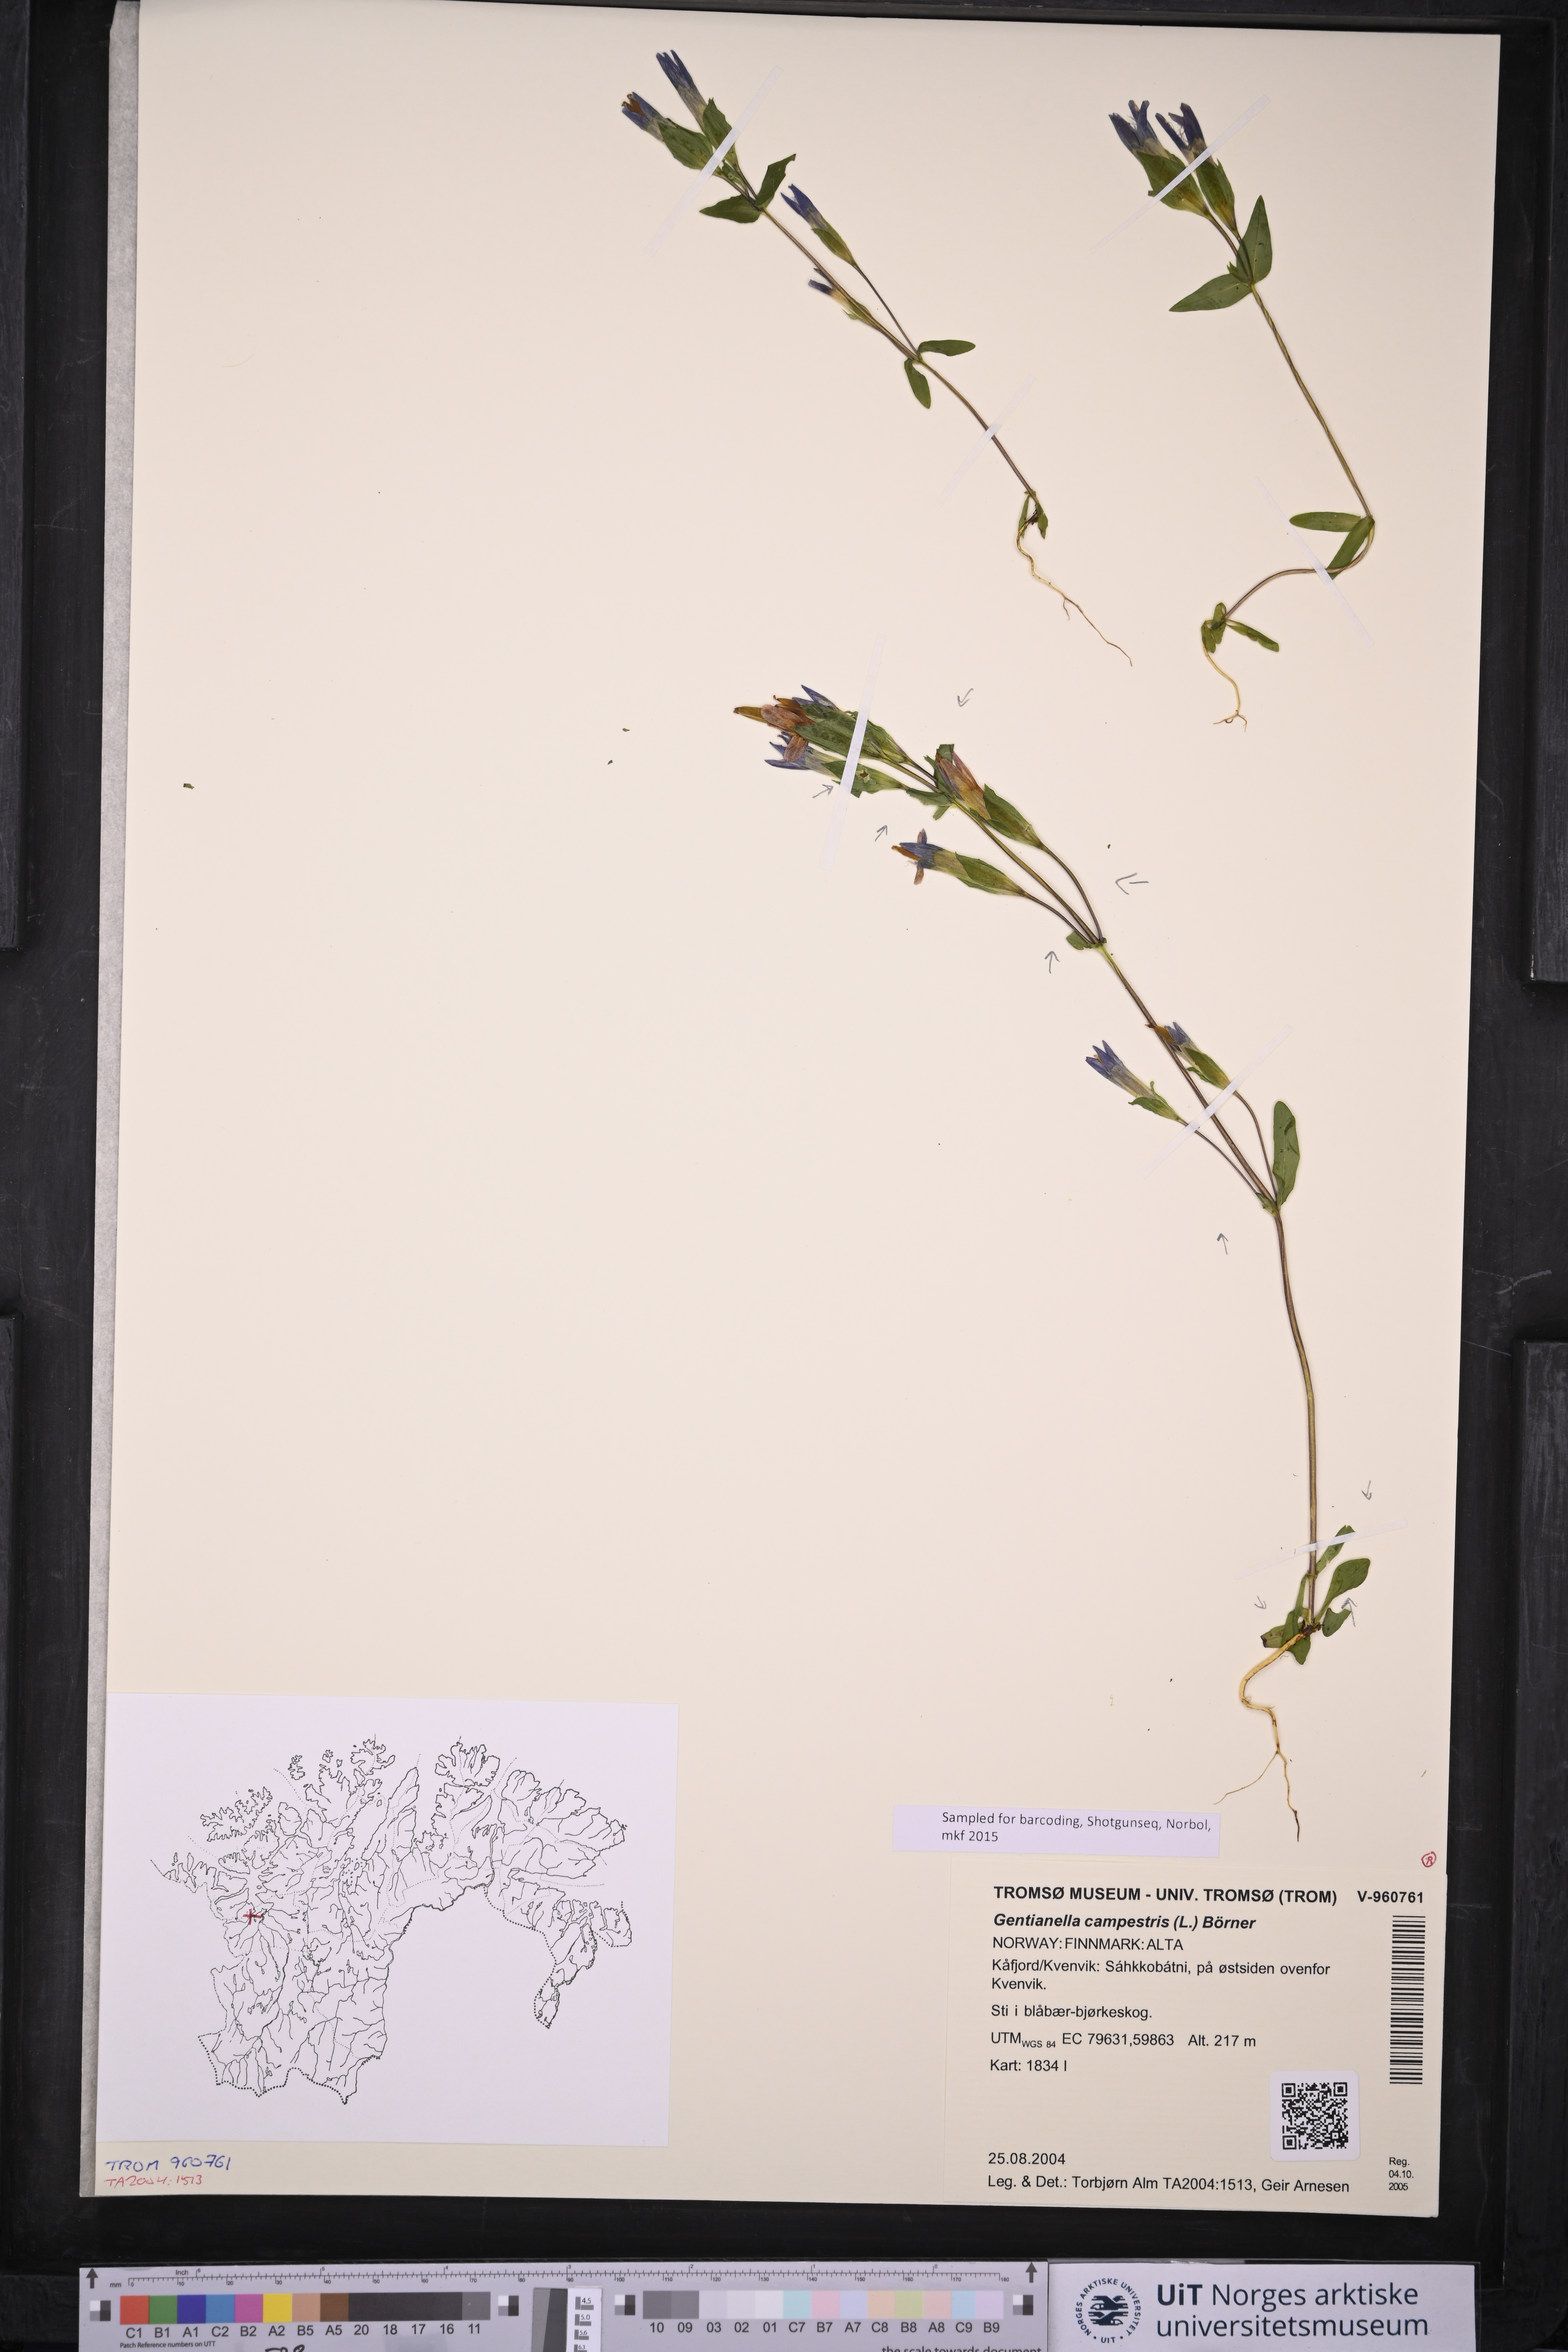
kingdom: Plantae
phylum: Tracheophyta
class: Magnoliopsida
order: Gentianales
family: Gentianaceae
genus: Gentianella
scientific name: Gentianella campestris
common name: Field gentian
